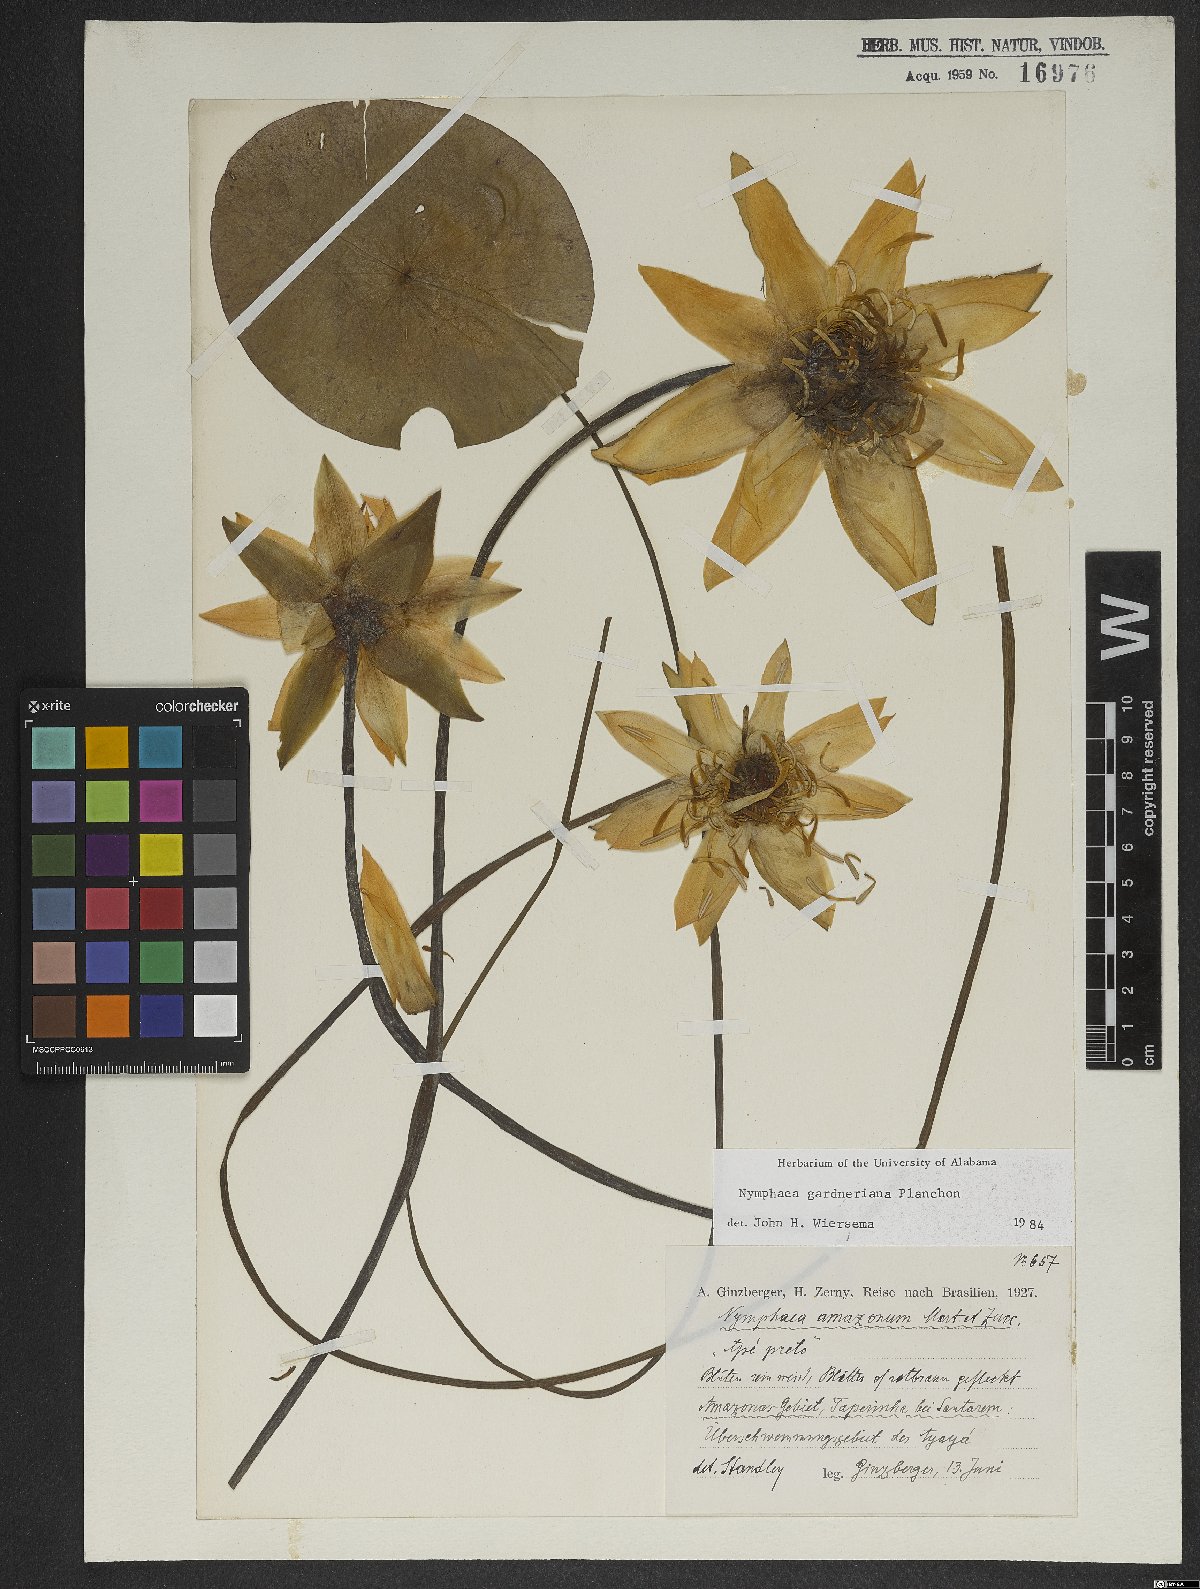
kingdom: Plantae
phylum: Tracheophyta
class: Magnoliopsida
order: Nymphaeales
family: Nymphaeaceae
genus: Nymphaea
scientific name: Nymphaea gardneriana
